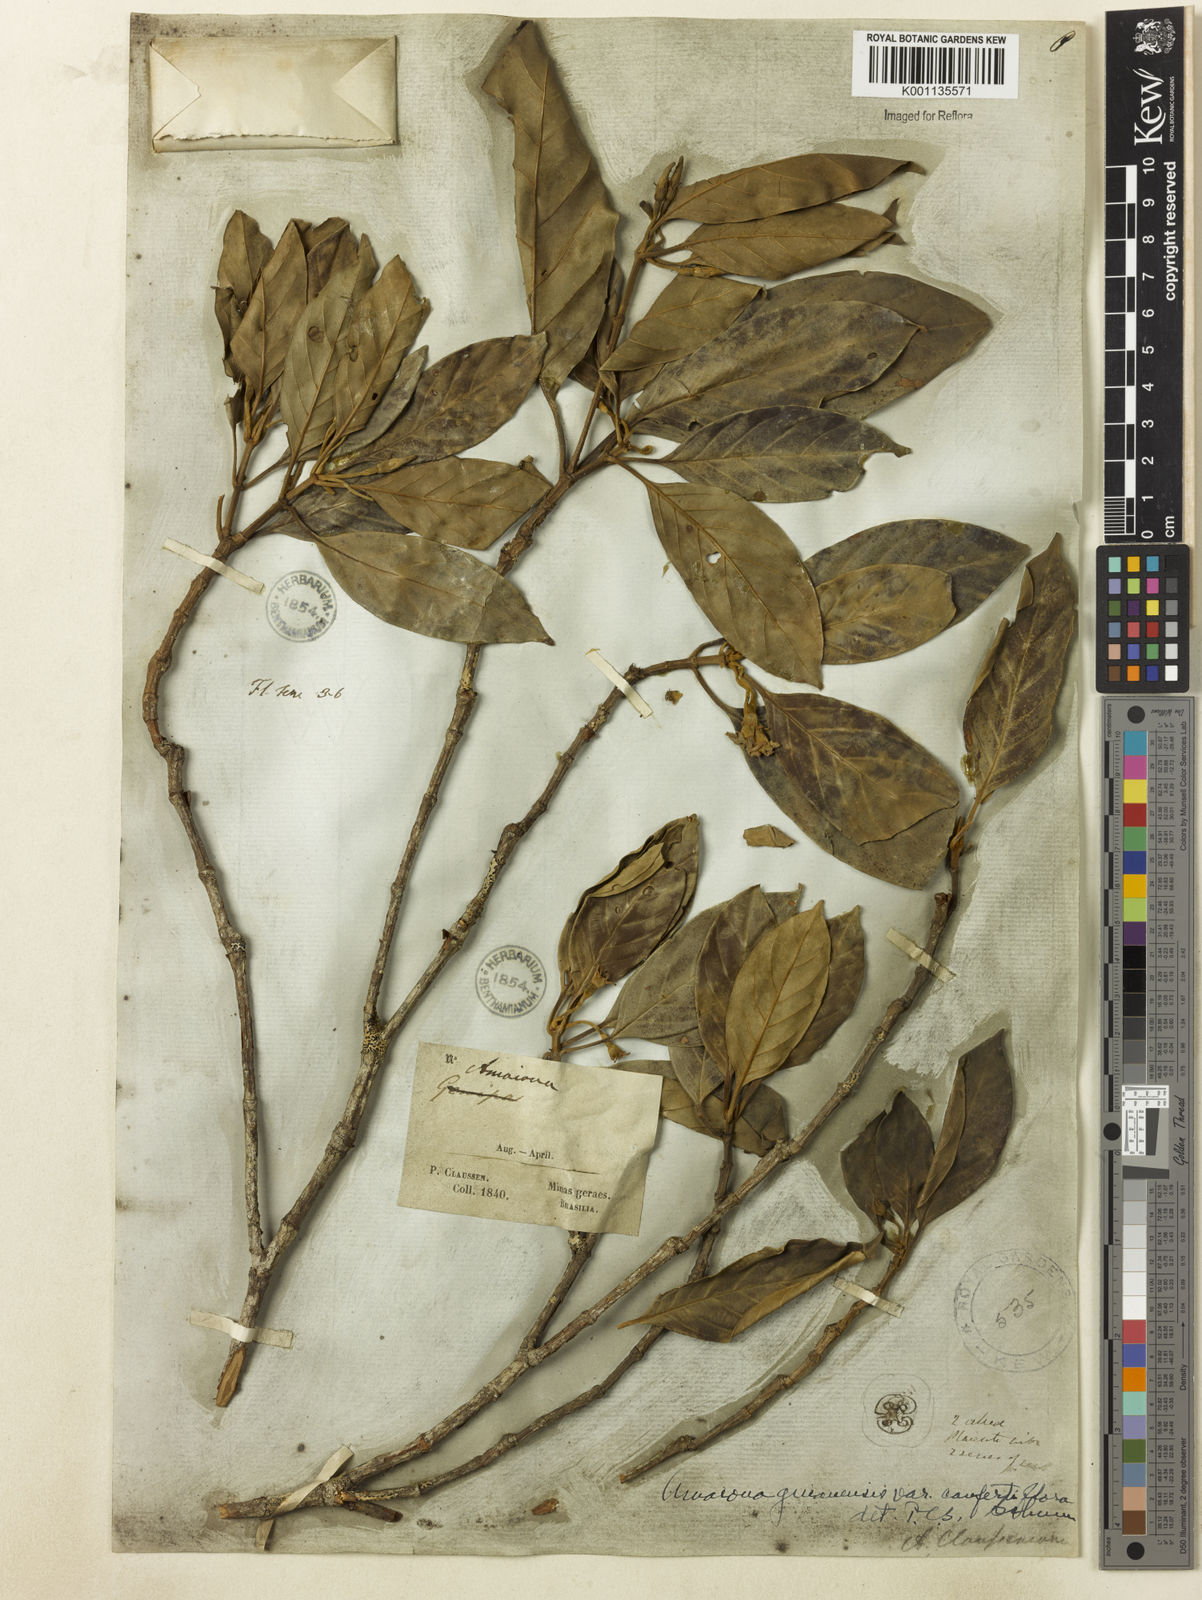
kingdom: Plantae
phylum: Tracheophyta
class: Magnoliopsida
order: Gentianales
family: Rubiaceae
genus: Amaioua
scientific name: Amaioua intermedia
